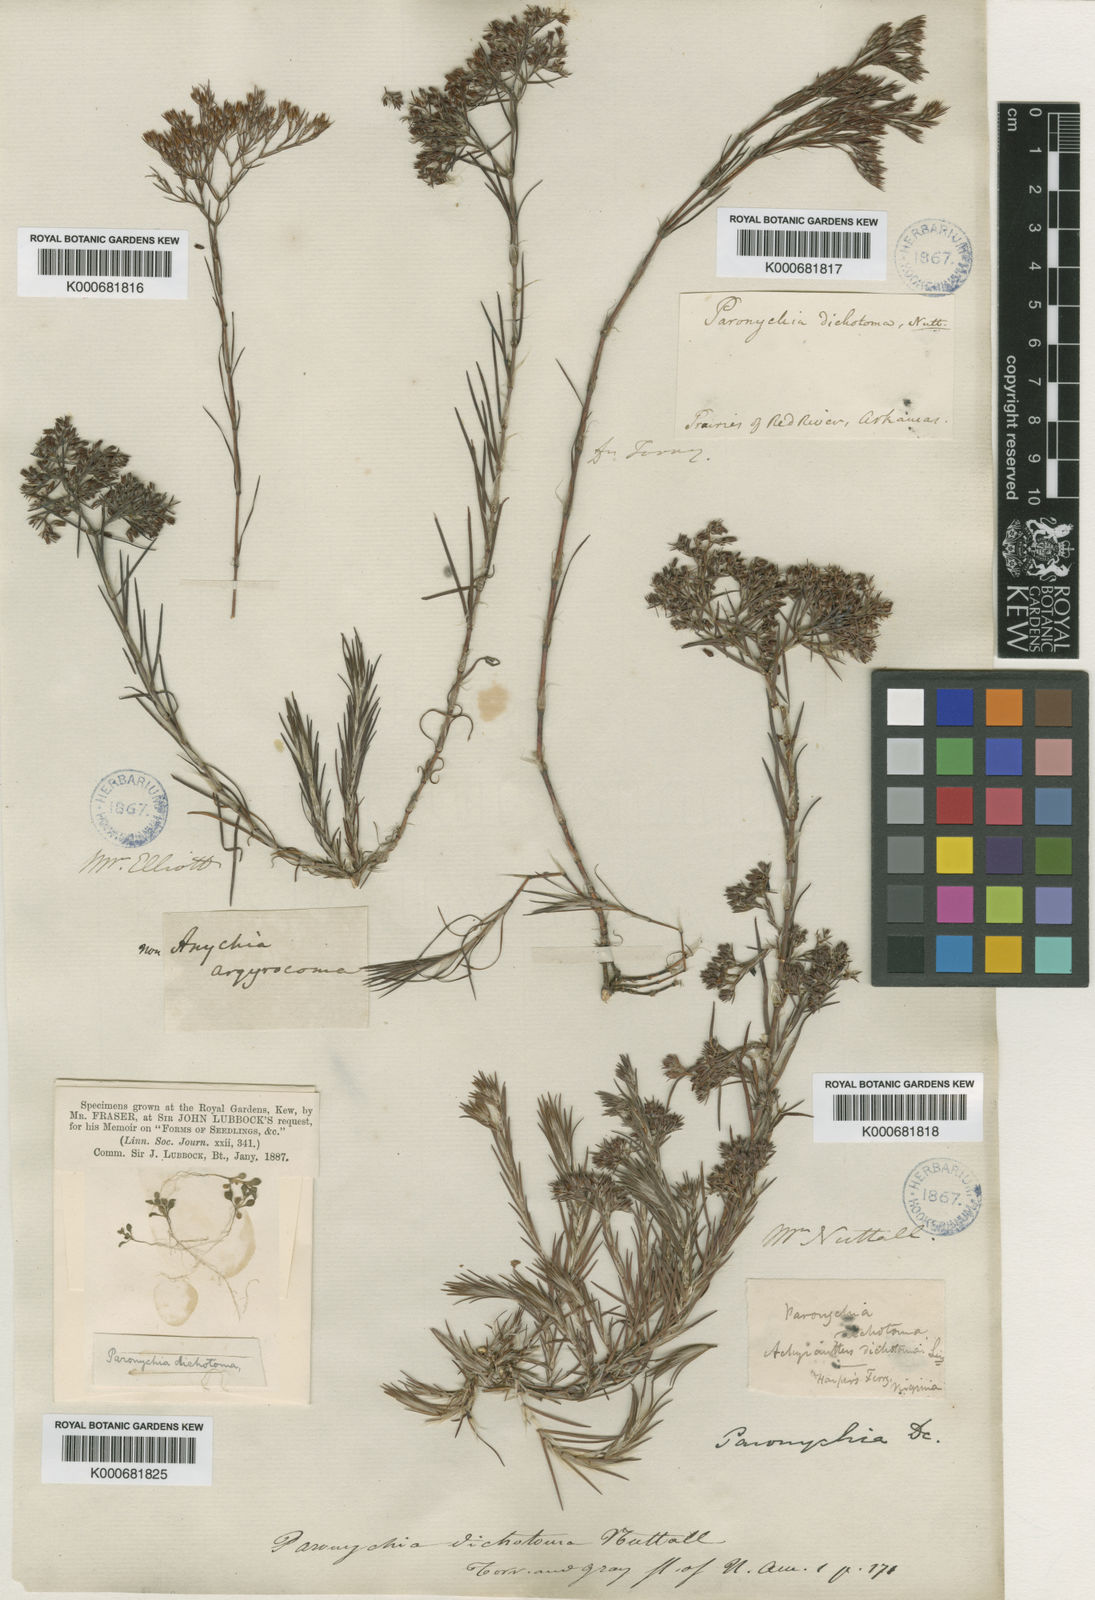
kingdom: Plantae
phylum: Tracheophyta
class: Magnoliopsida
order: Caryophyllales
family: Caryophyllaceae
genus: Paronychia
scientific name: Paronychia
